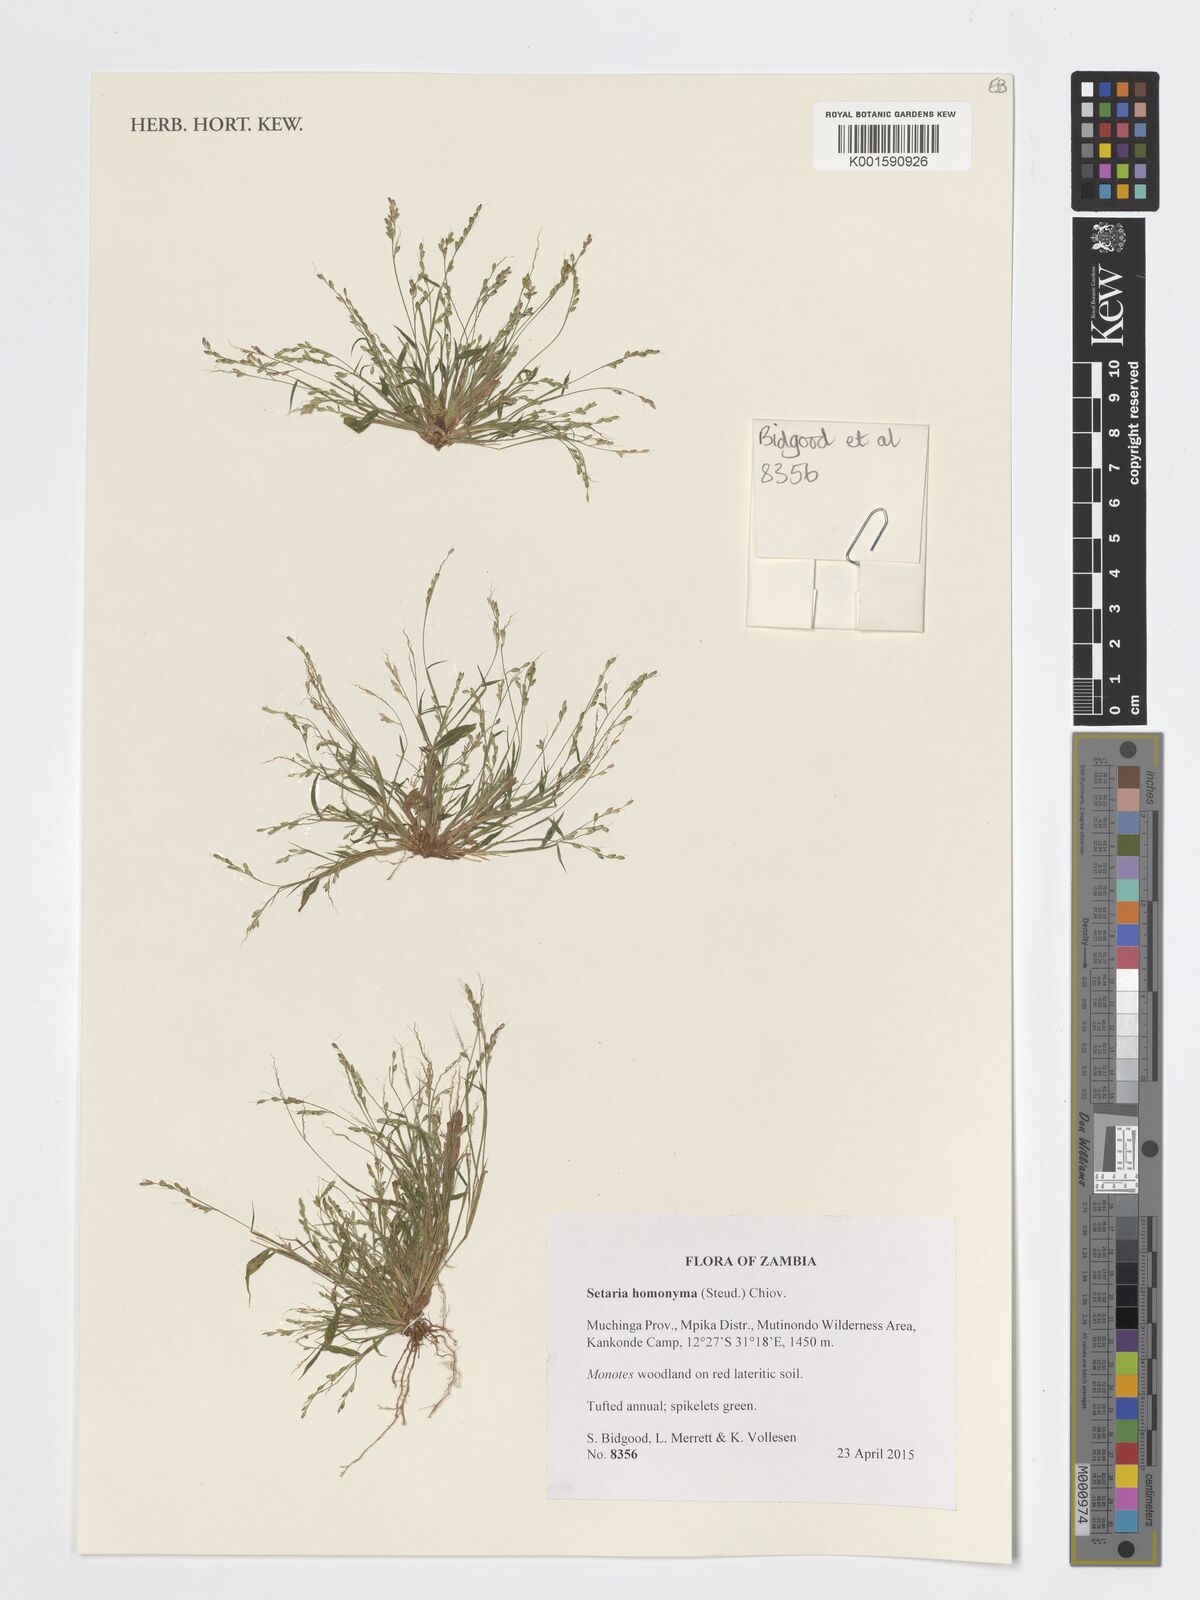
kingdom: Plantae
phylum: Tracheophyta
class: Liliopsida
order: Poales
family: Poaceae
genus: Setaria
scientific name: Setaria homonyma
